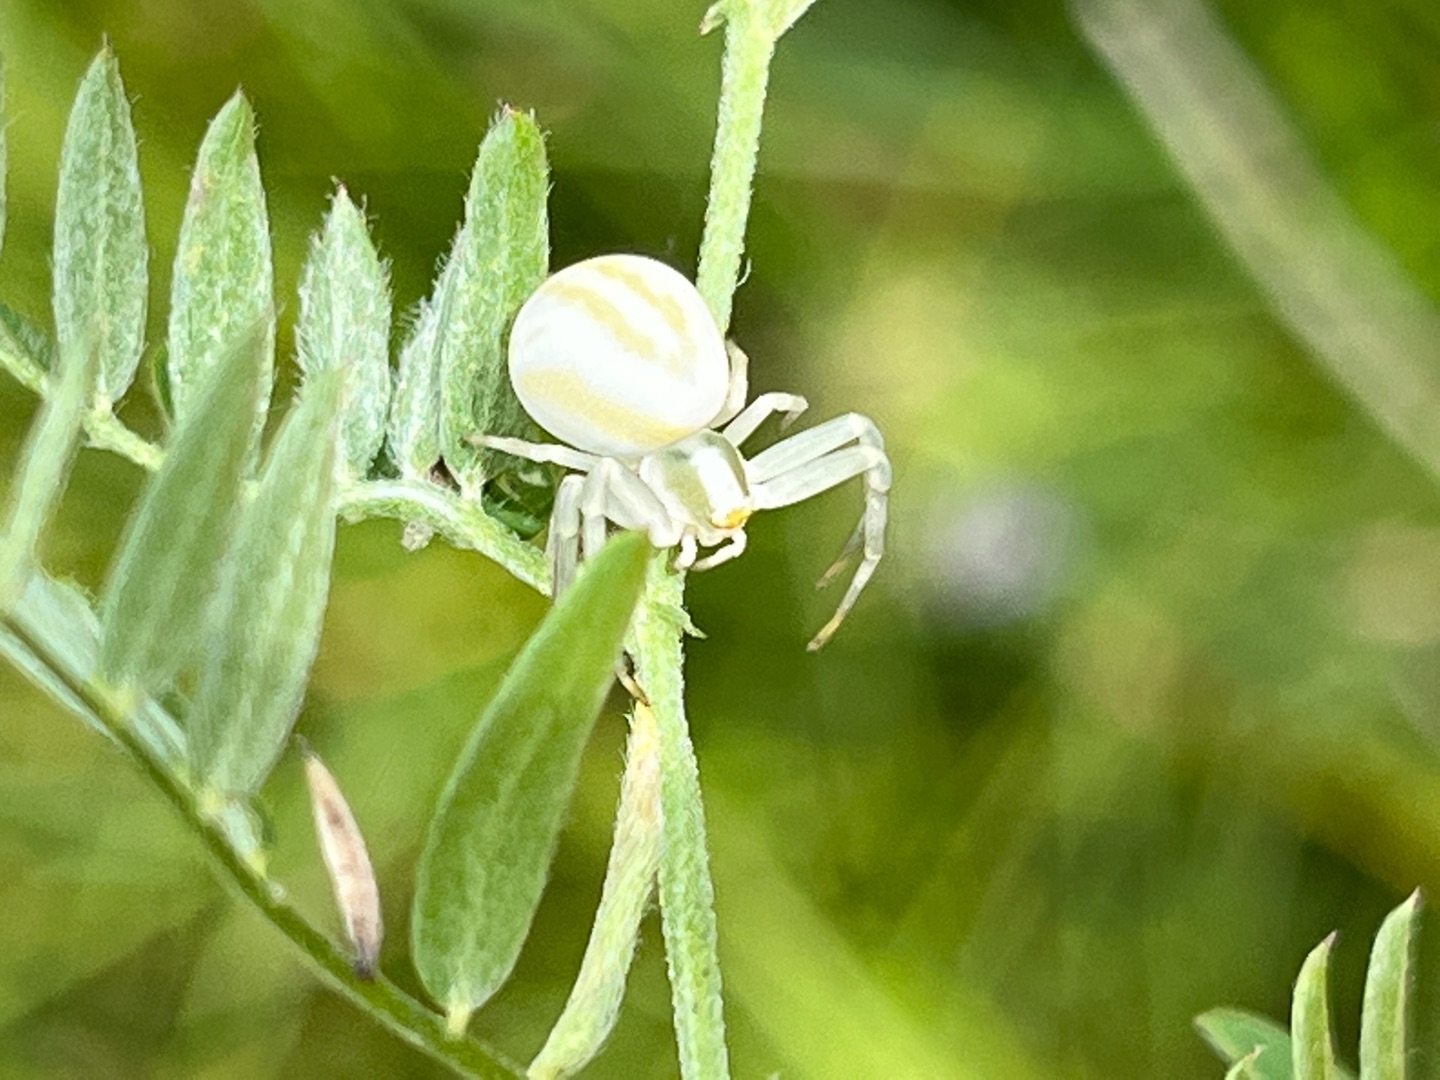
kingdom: Animalia
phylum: Arthropoda
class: Arachnida
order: Araneae
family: Thomisidae
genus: Misumena
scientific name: Misumena vatia
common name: Kamæleonedderkop
